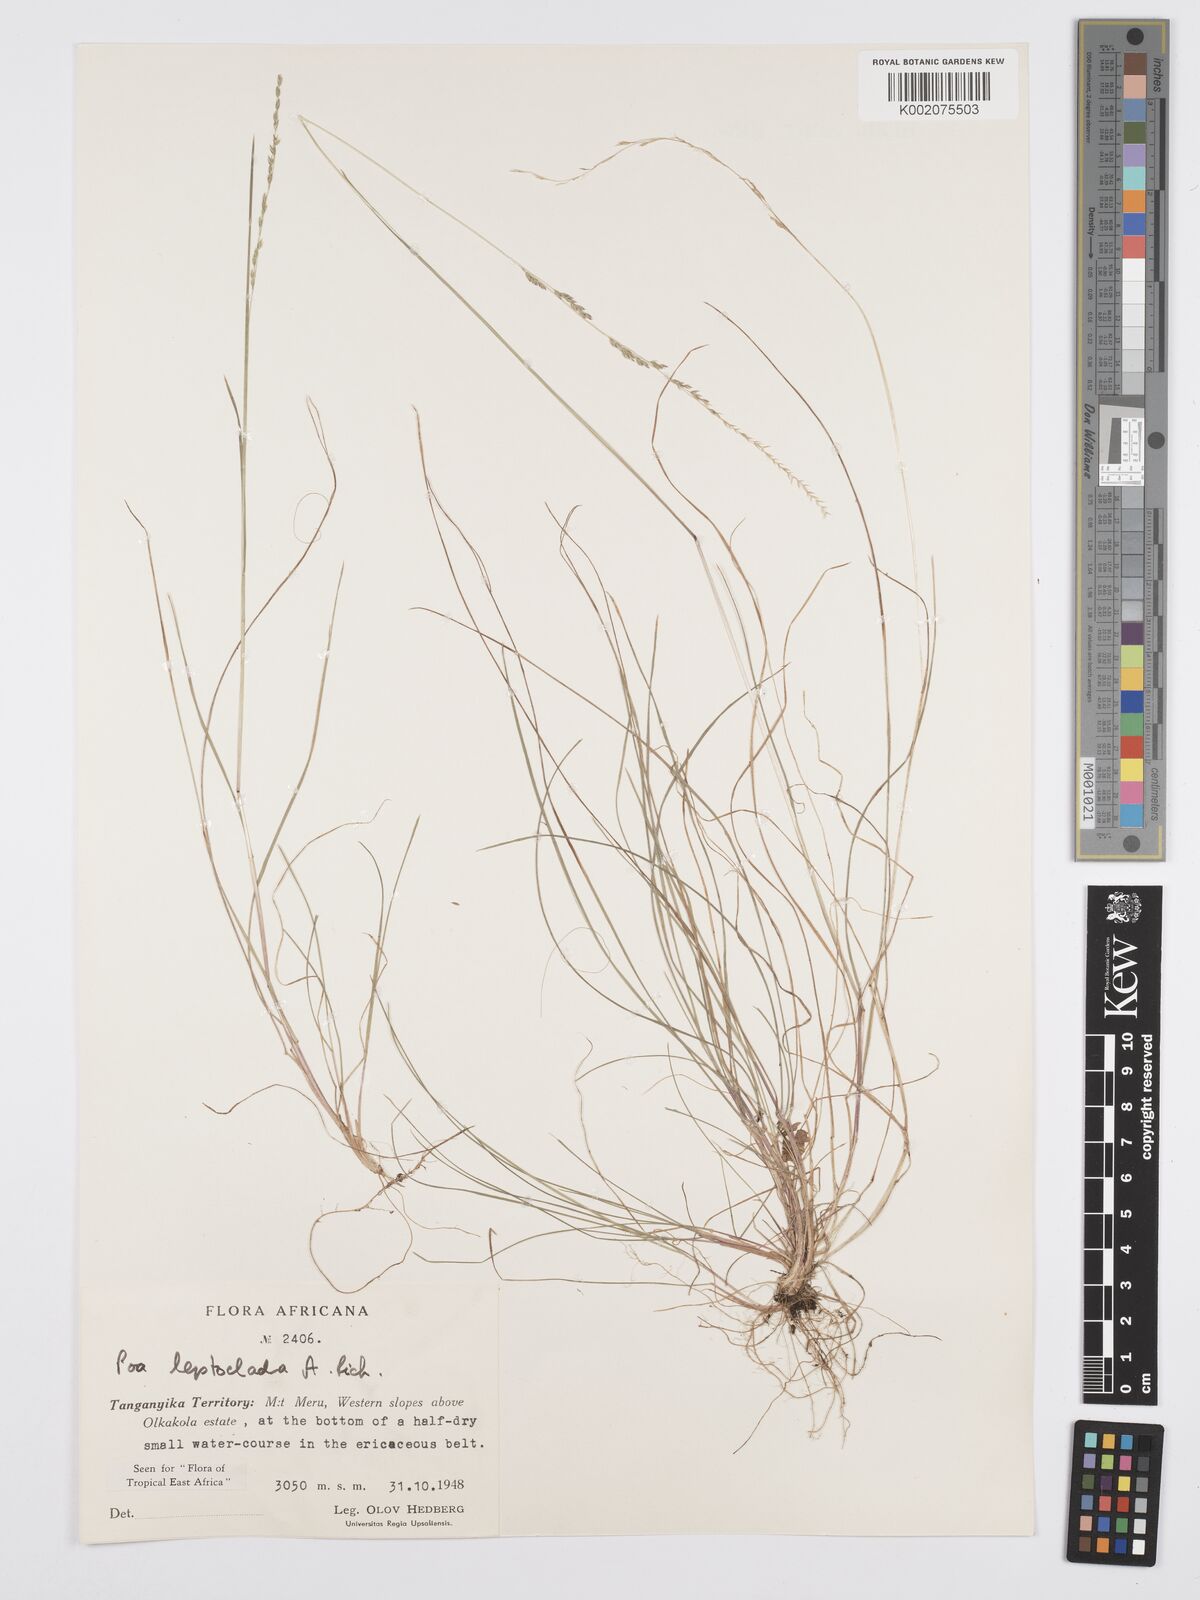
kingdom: Plantae
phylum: Tracheophyta
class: Liliopsida
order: Poales
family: Poaceae
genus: Poa
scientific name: Poa leptoclada
